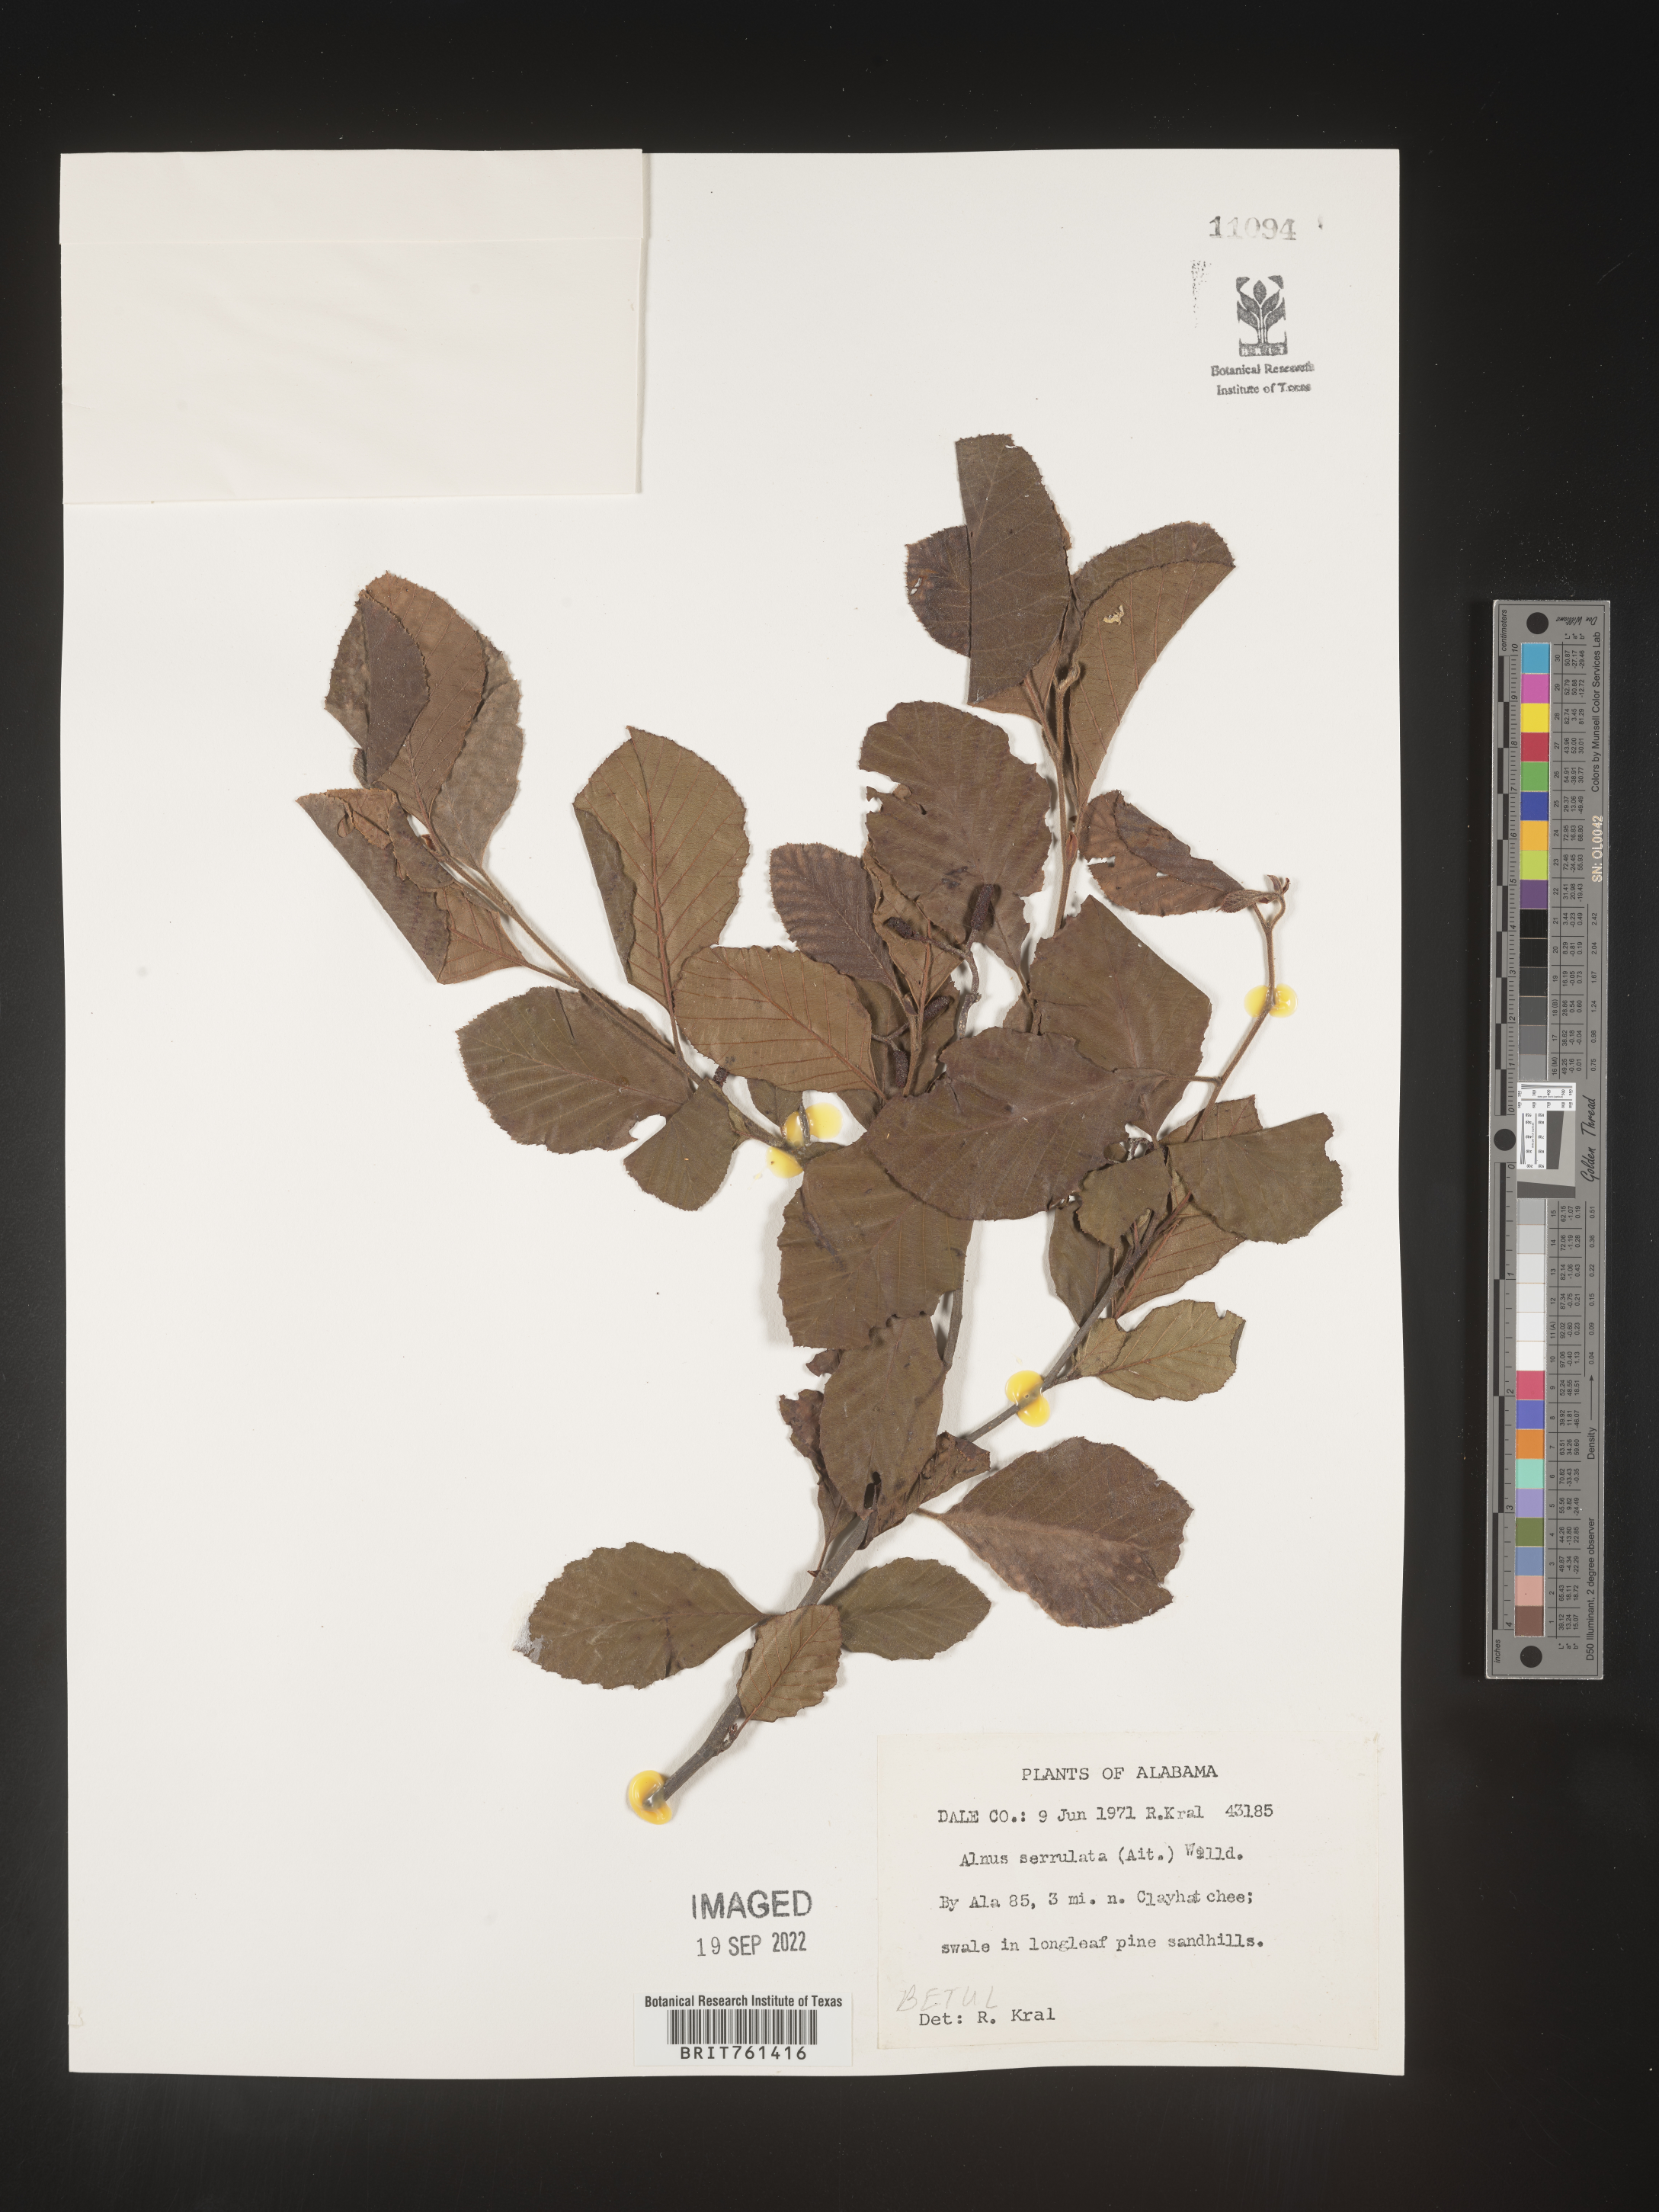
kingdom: Plantae
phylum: Tracheophyta
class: Magnoliopsida
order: Fagales
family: Betulaceae
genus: Alnus
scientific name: Alnus serrulata
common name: Hazel alder
